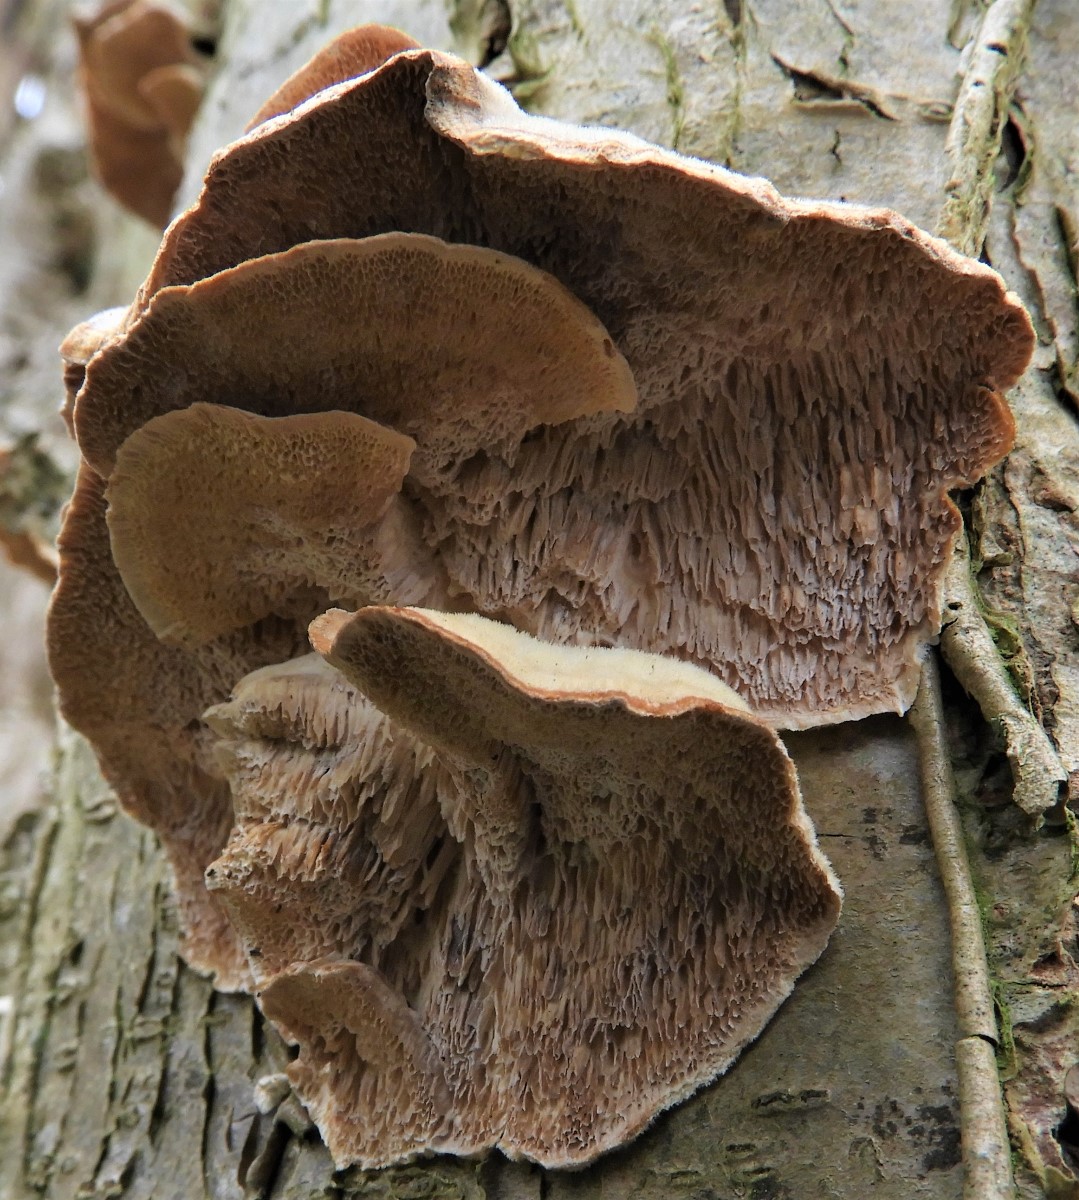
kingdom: Fungi
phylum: Basidiomycota
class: Agaricomycetes
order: Polyporales
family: Polyporaceae
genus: Trametes
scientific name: Trametes hirsuta
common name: håret læderporesvamp
